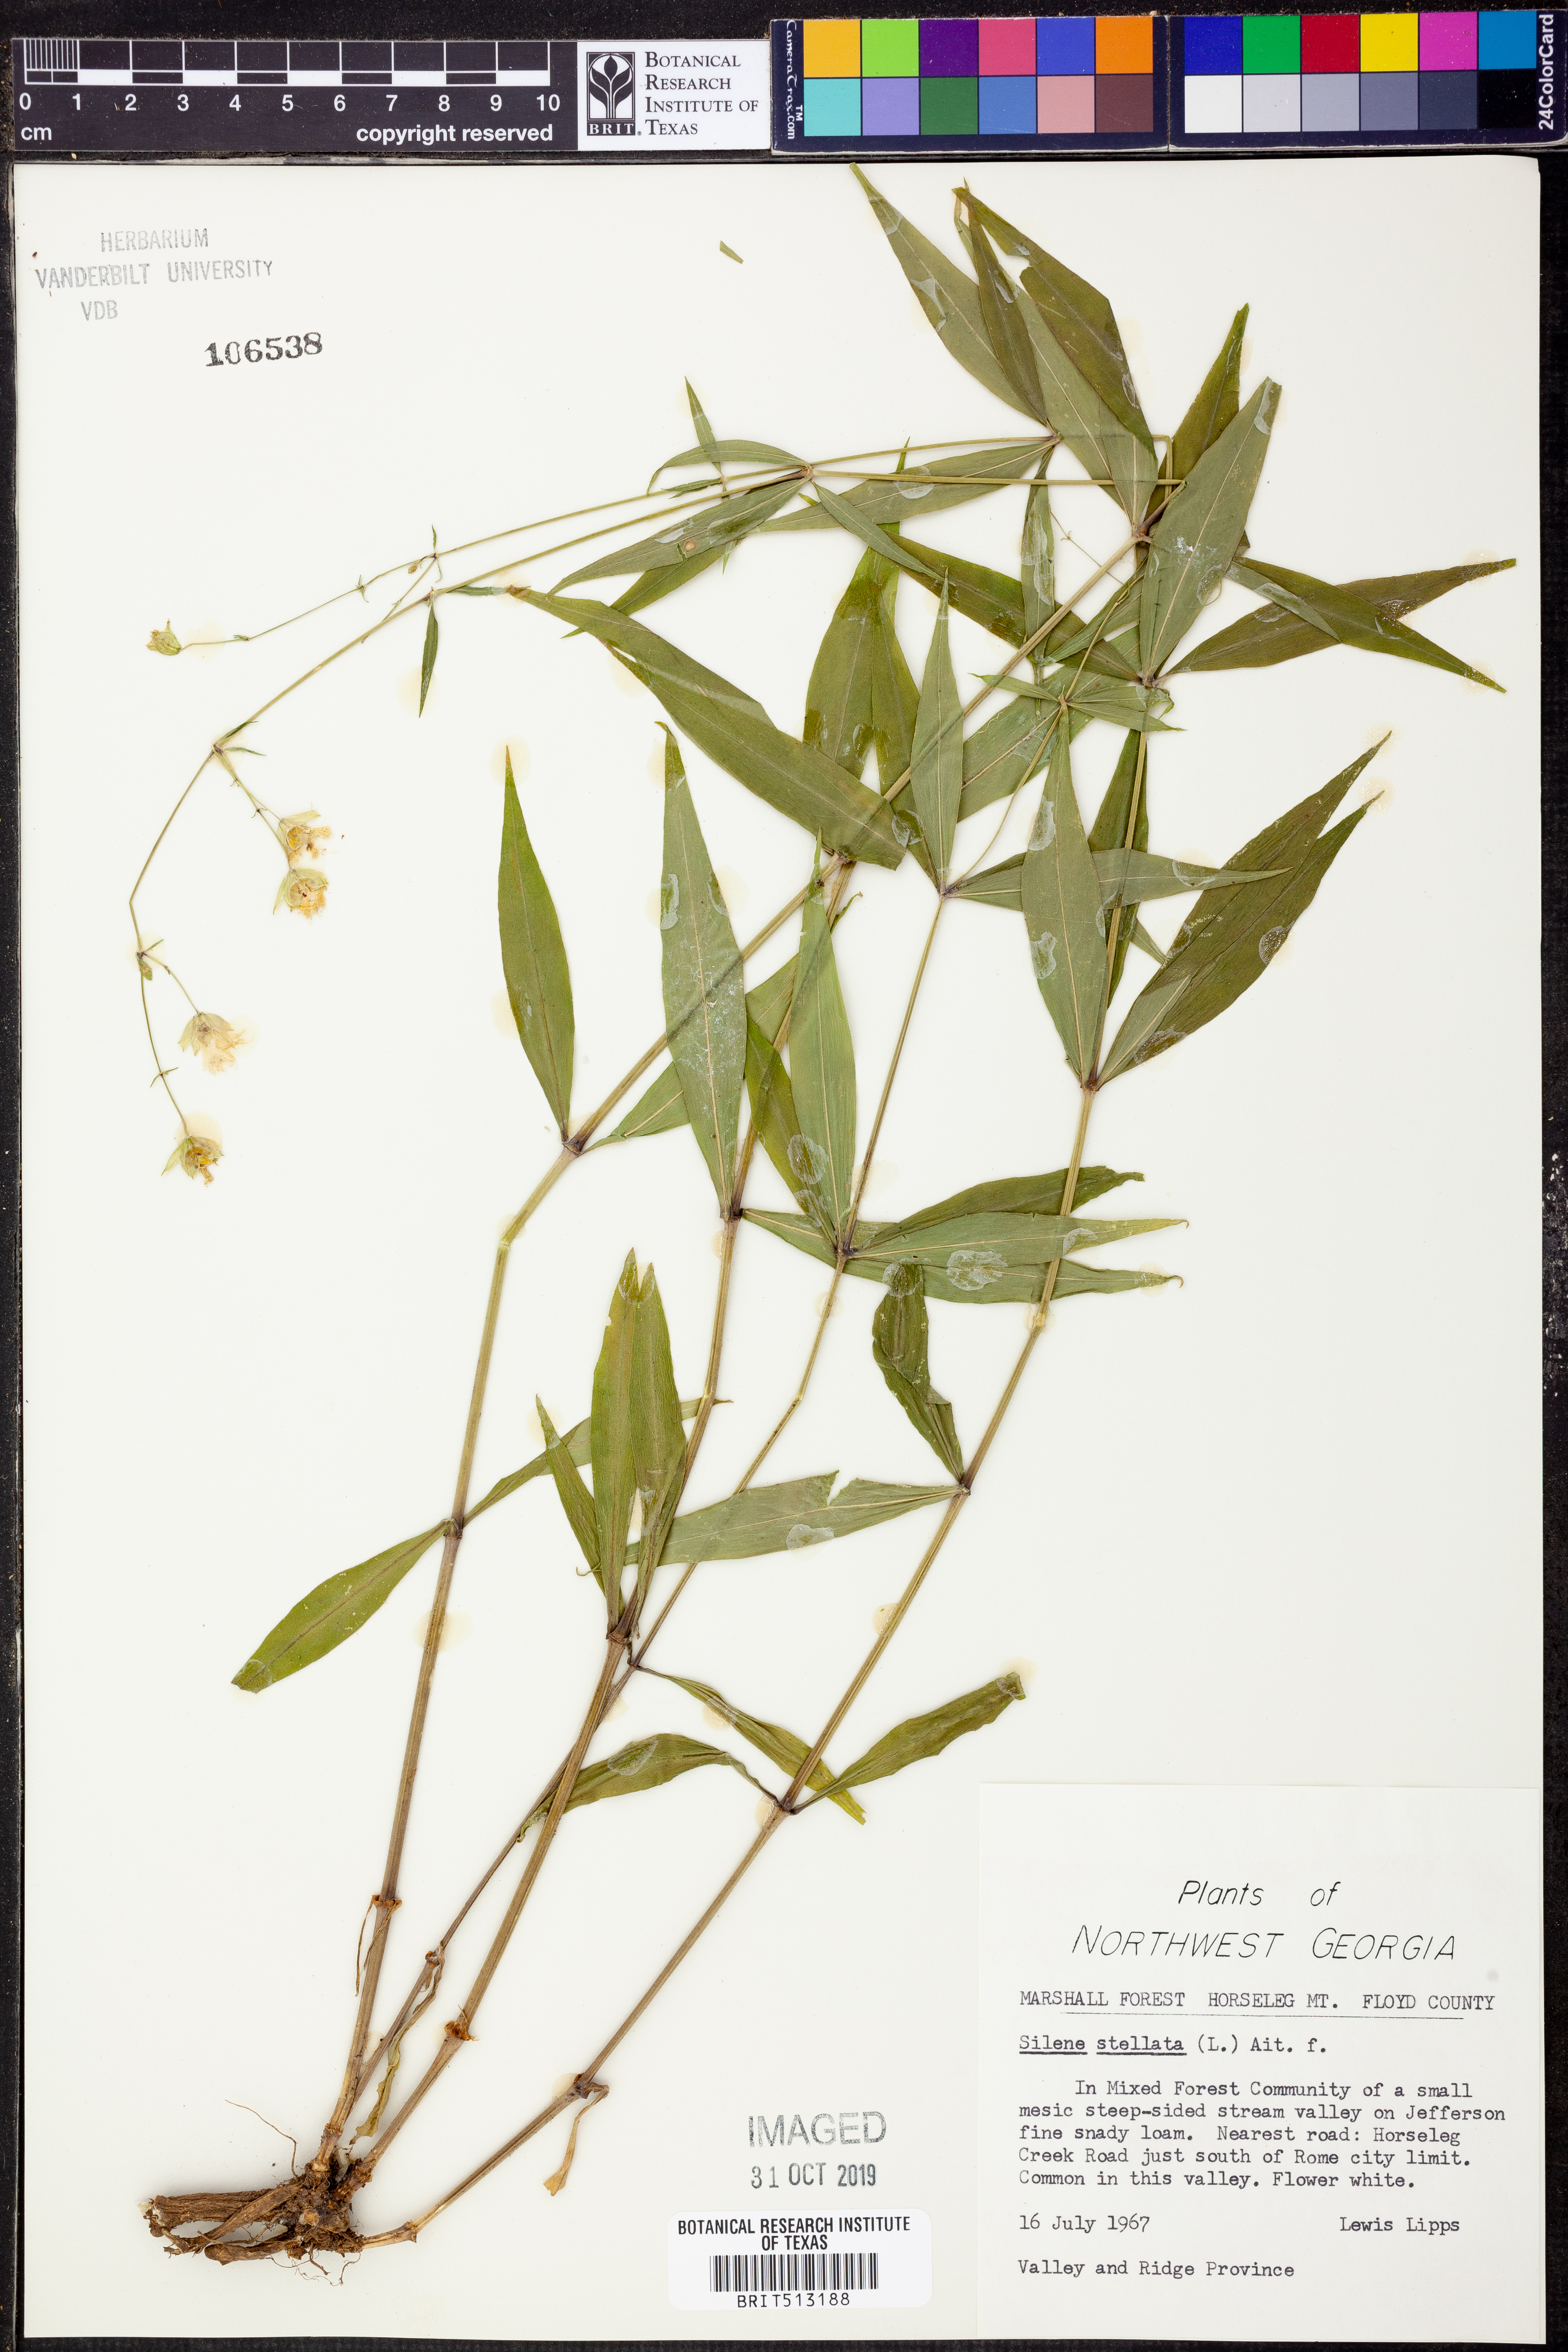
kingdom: Plantae
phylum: Tracheophyta
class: Magnoliopsida
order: Caryophyllales
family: Caryophyllaceae
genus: Silene
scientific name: Silene stellata
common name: Starry campion
